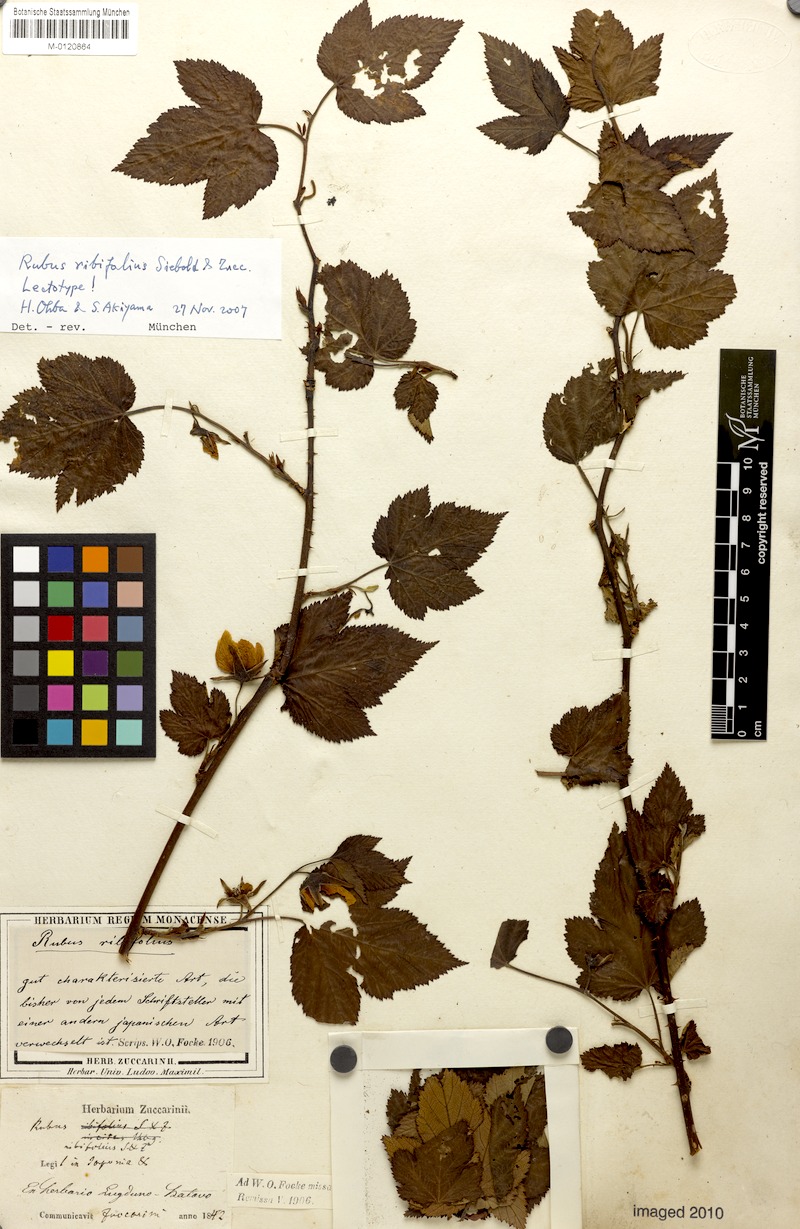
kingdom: Plantae
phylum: Tracheophyta
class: Magnoliopsida
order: Rosales
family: Rosaceae
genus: Rubus
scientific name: Rubus trifidus
